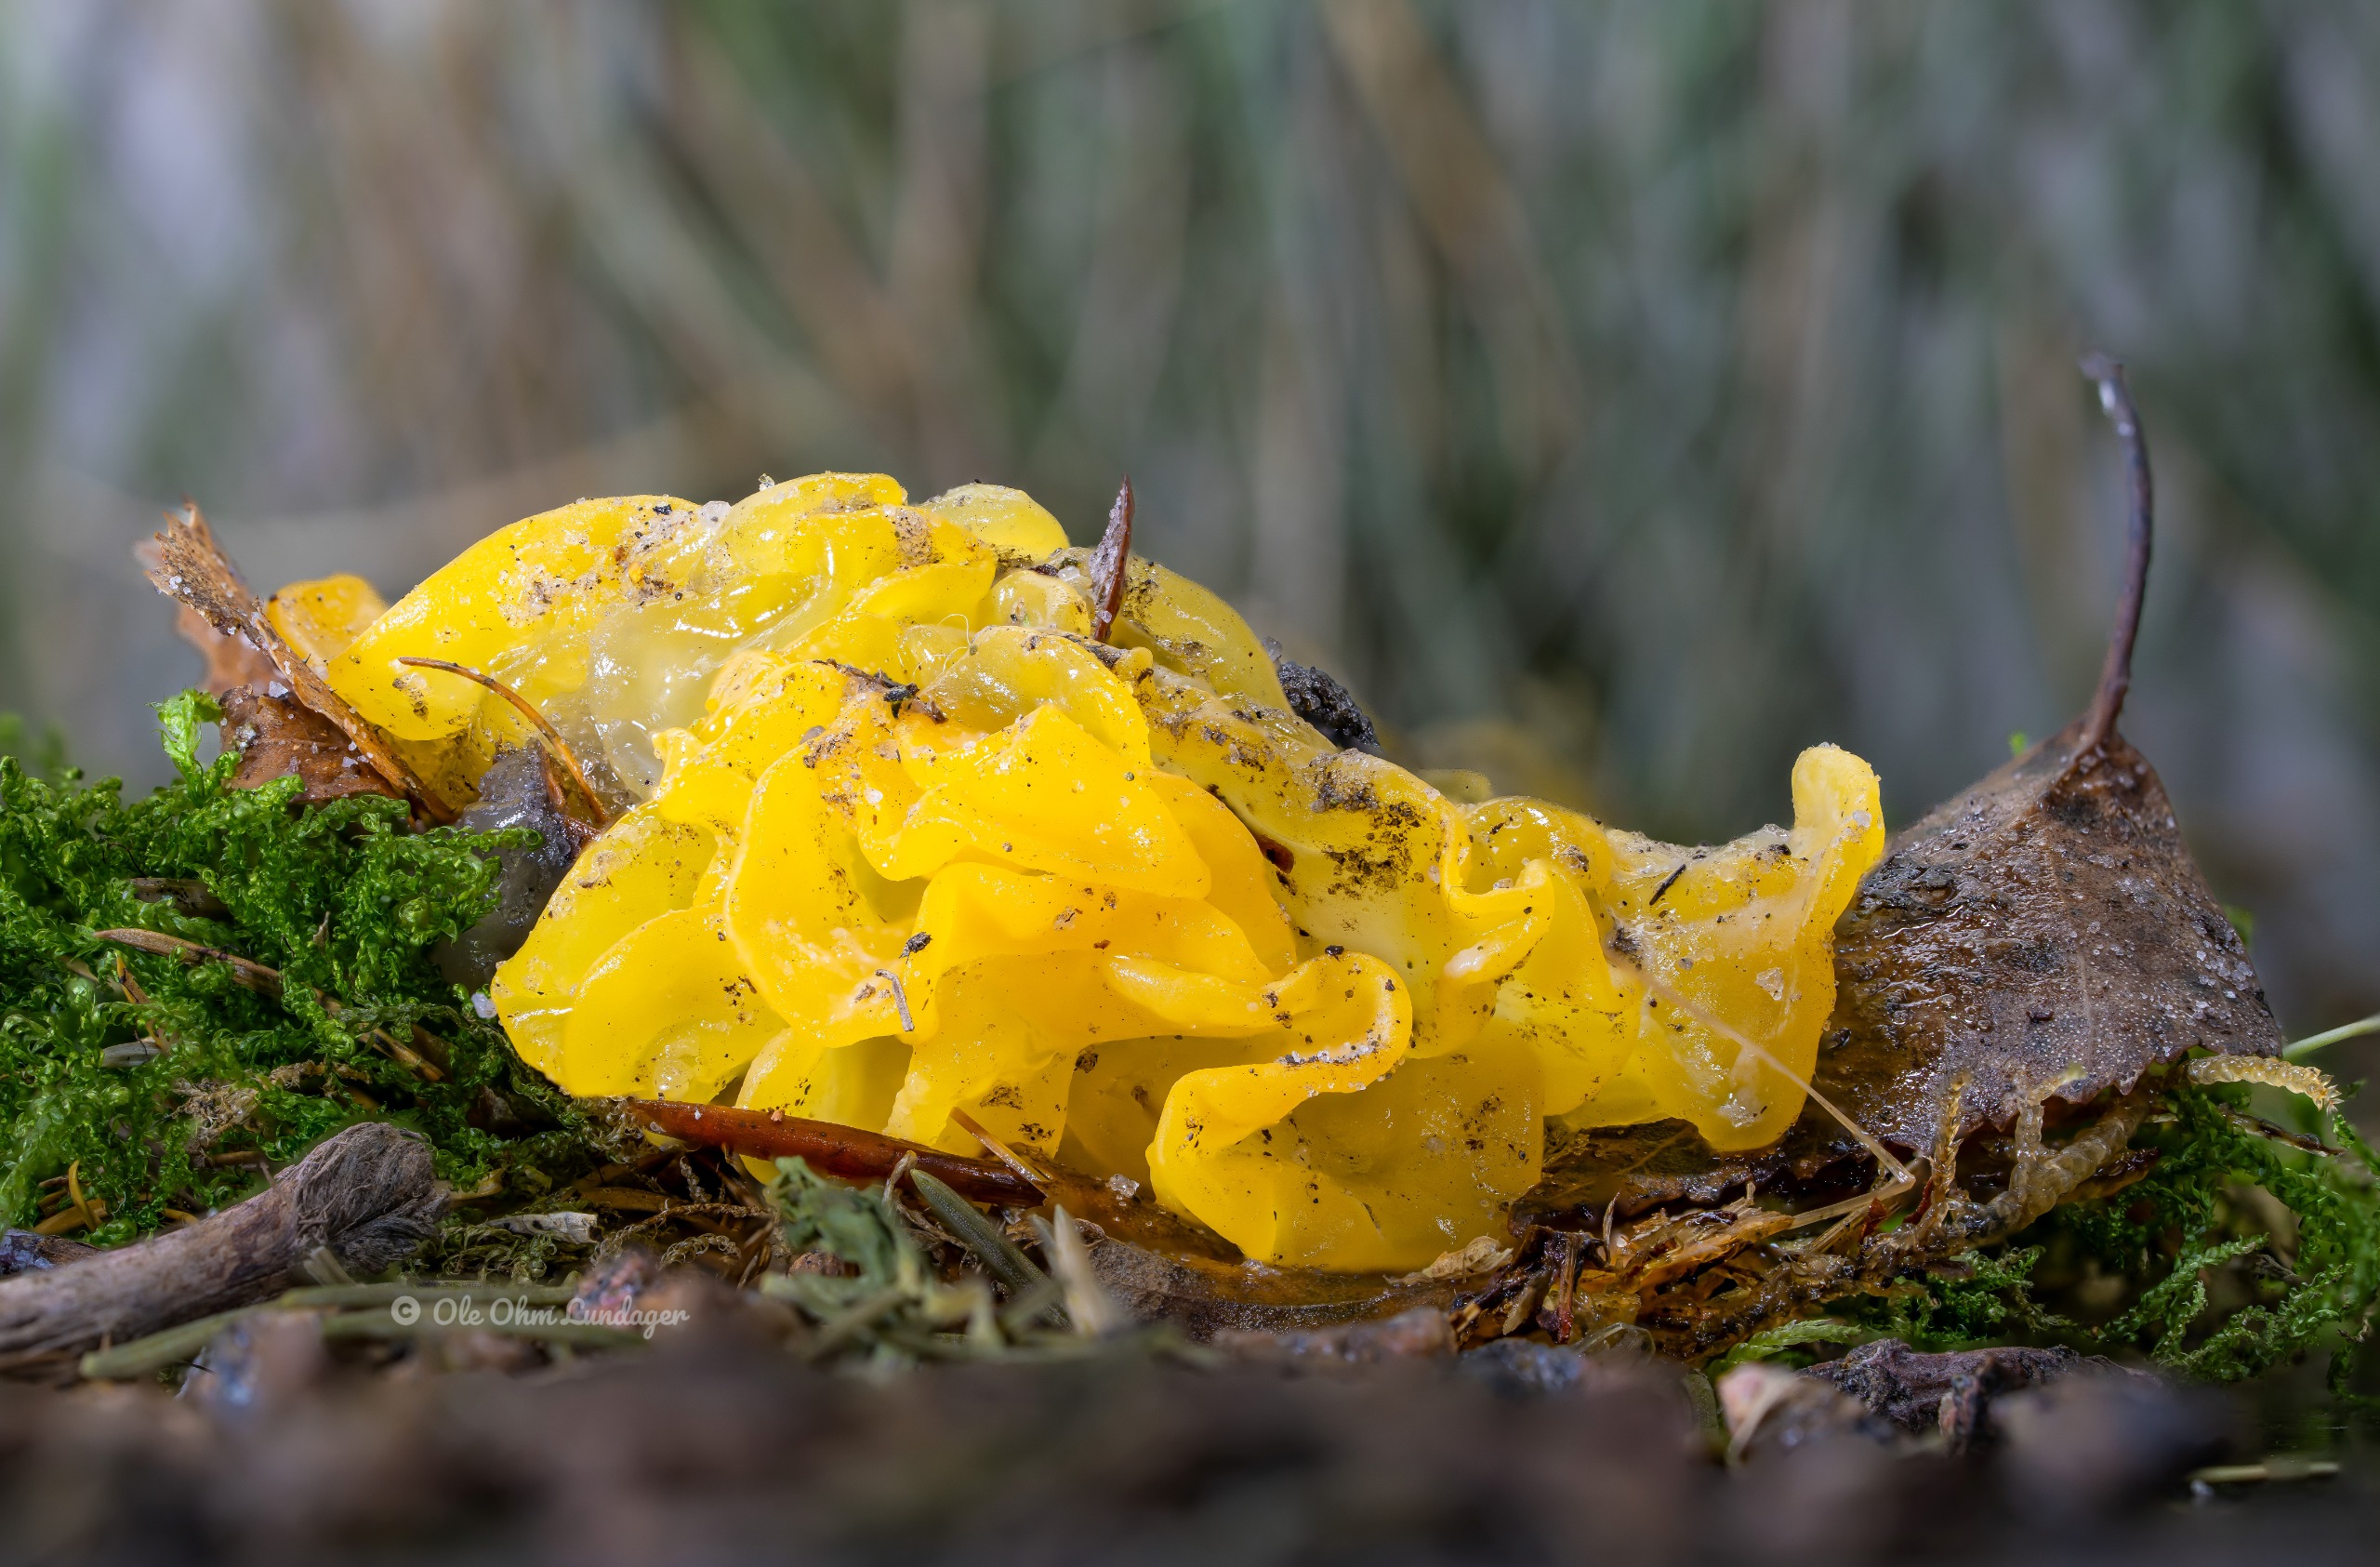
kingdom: Fungi
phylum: Basidiomycota
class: Tremellomycetes
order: Tremellales
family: Tremellaceae
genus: Tremella
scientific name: Tremella mesenterica
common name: Gul bævresvamp
